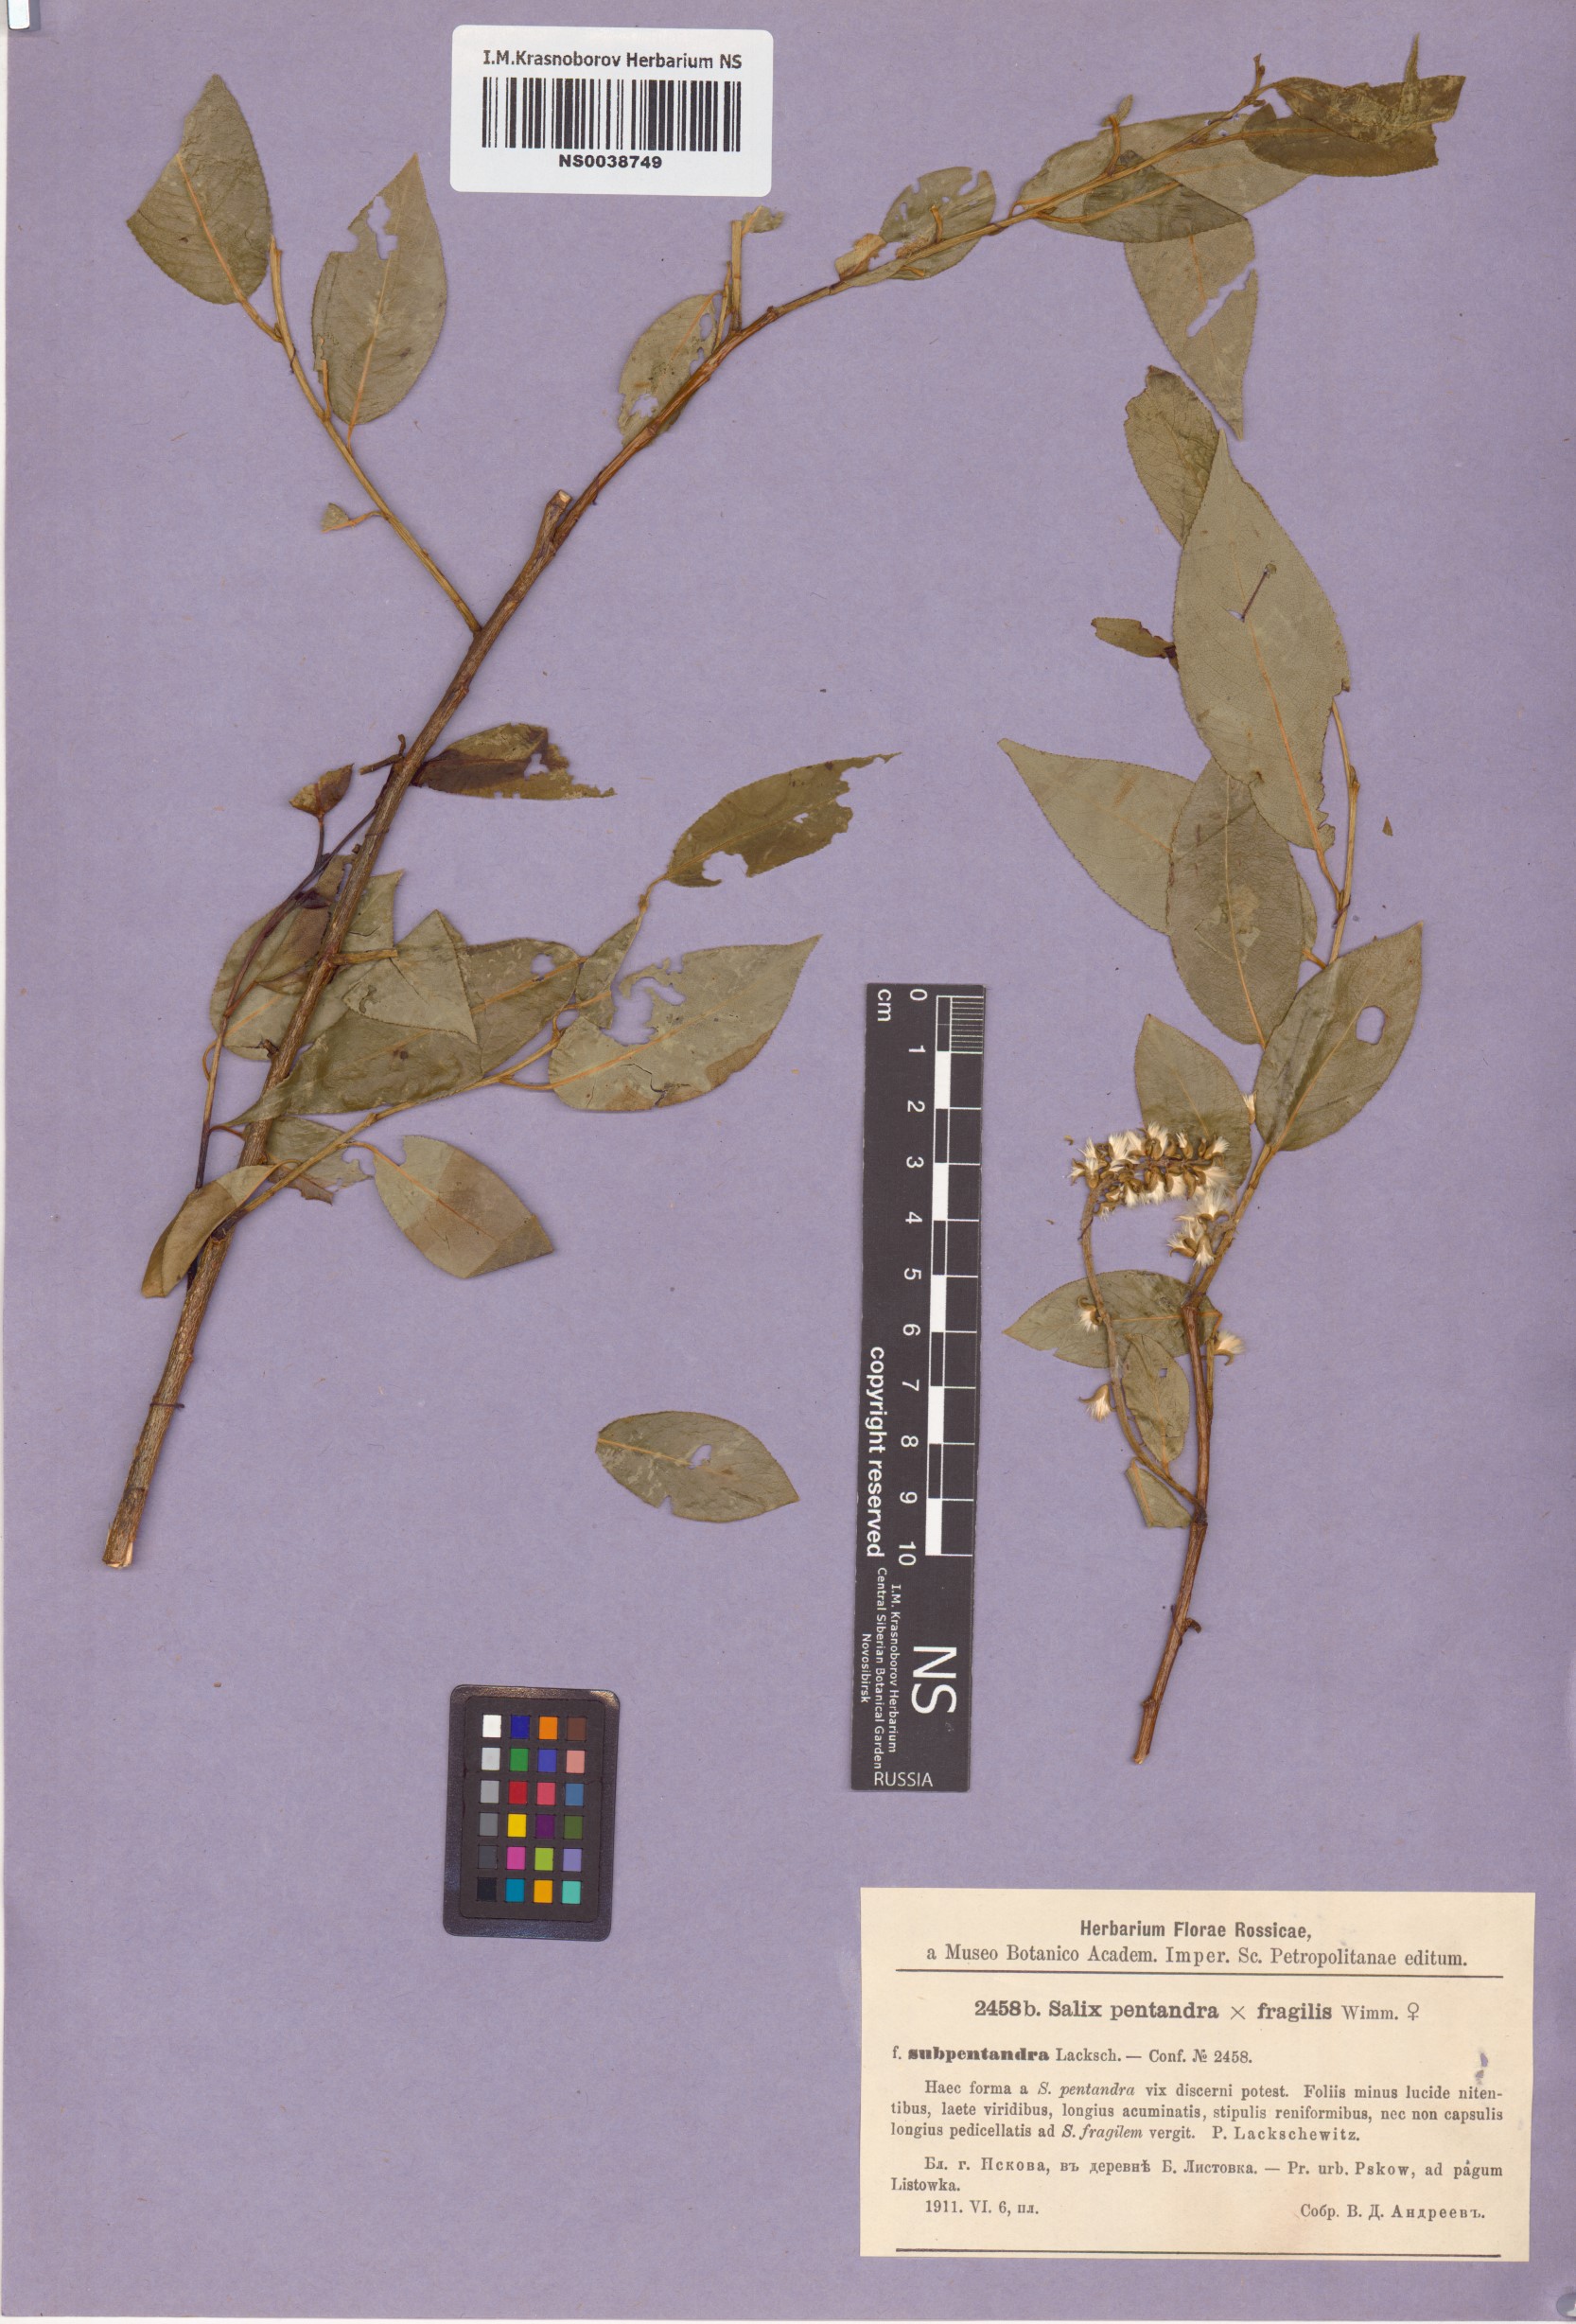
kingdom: Plantae
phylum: Tracheophyta
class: Magnoliopsida
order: Malpighiales
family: Salicaceae
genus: Salix
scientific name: Salix pentandra
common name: Bay willow
